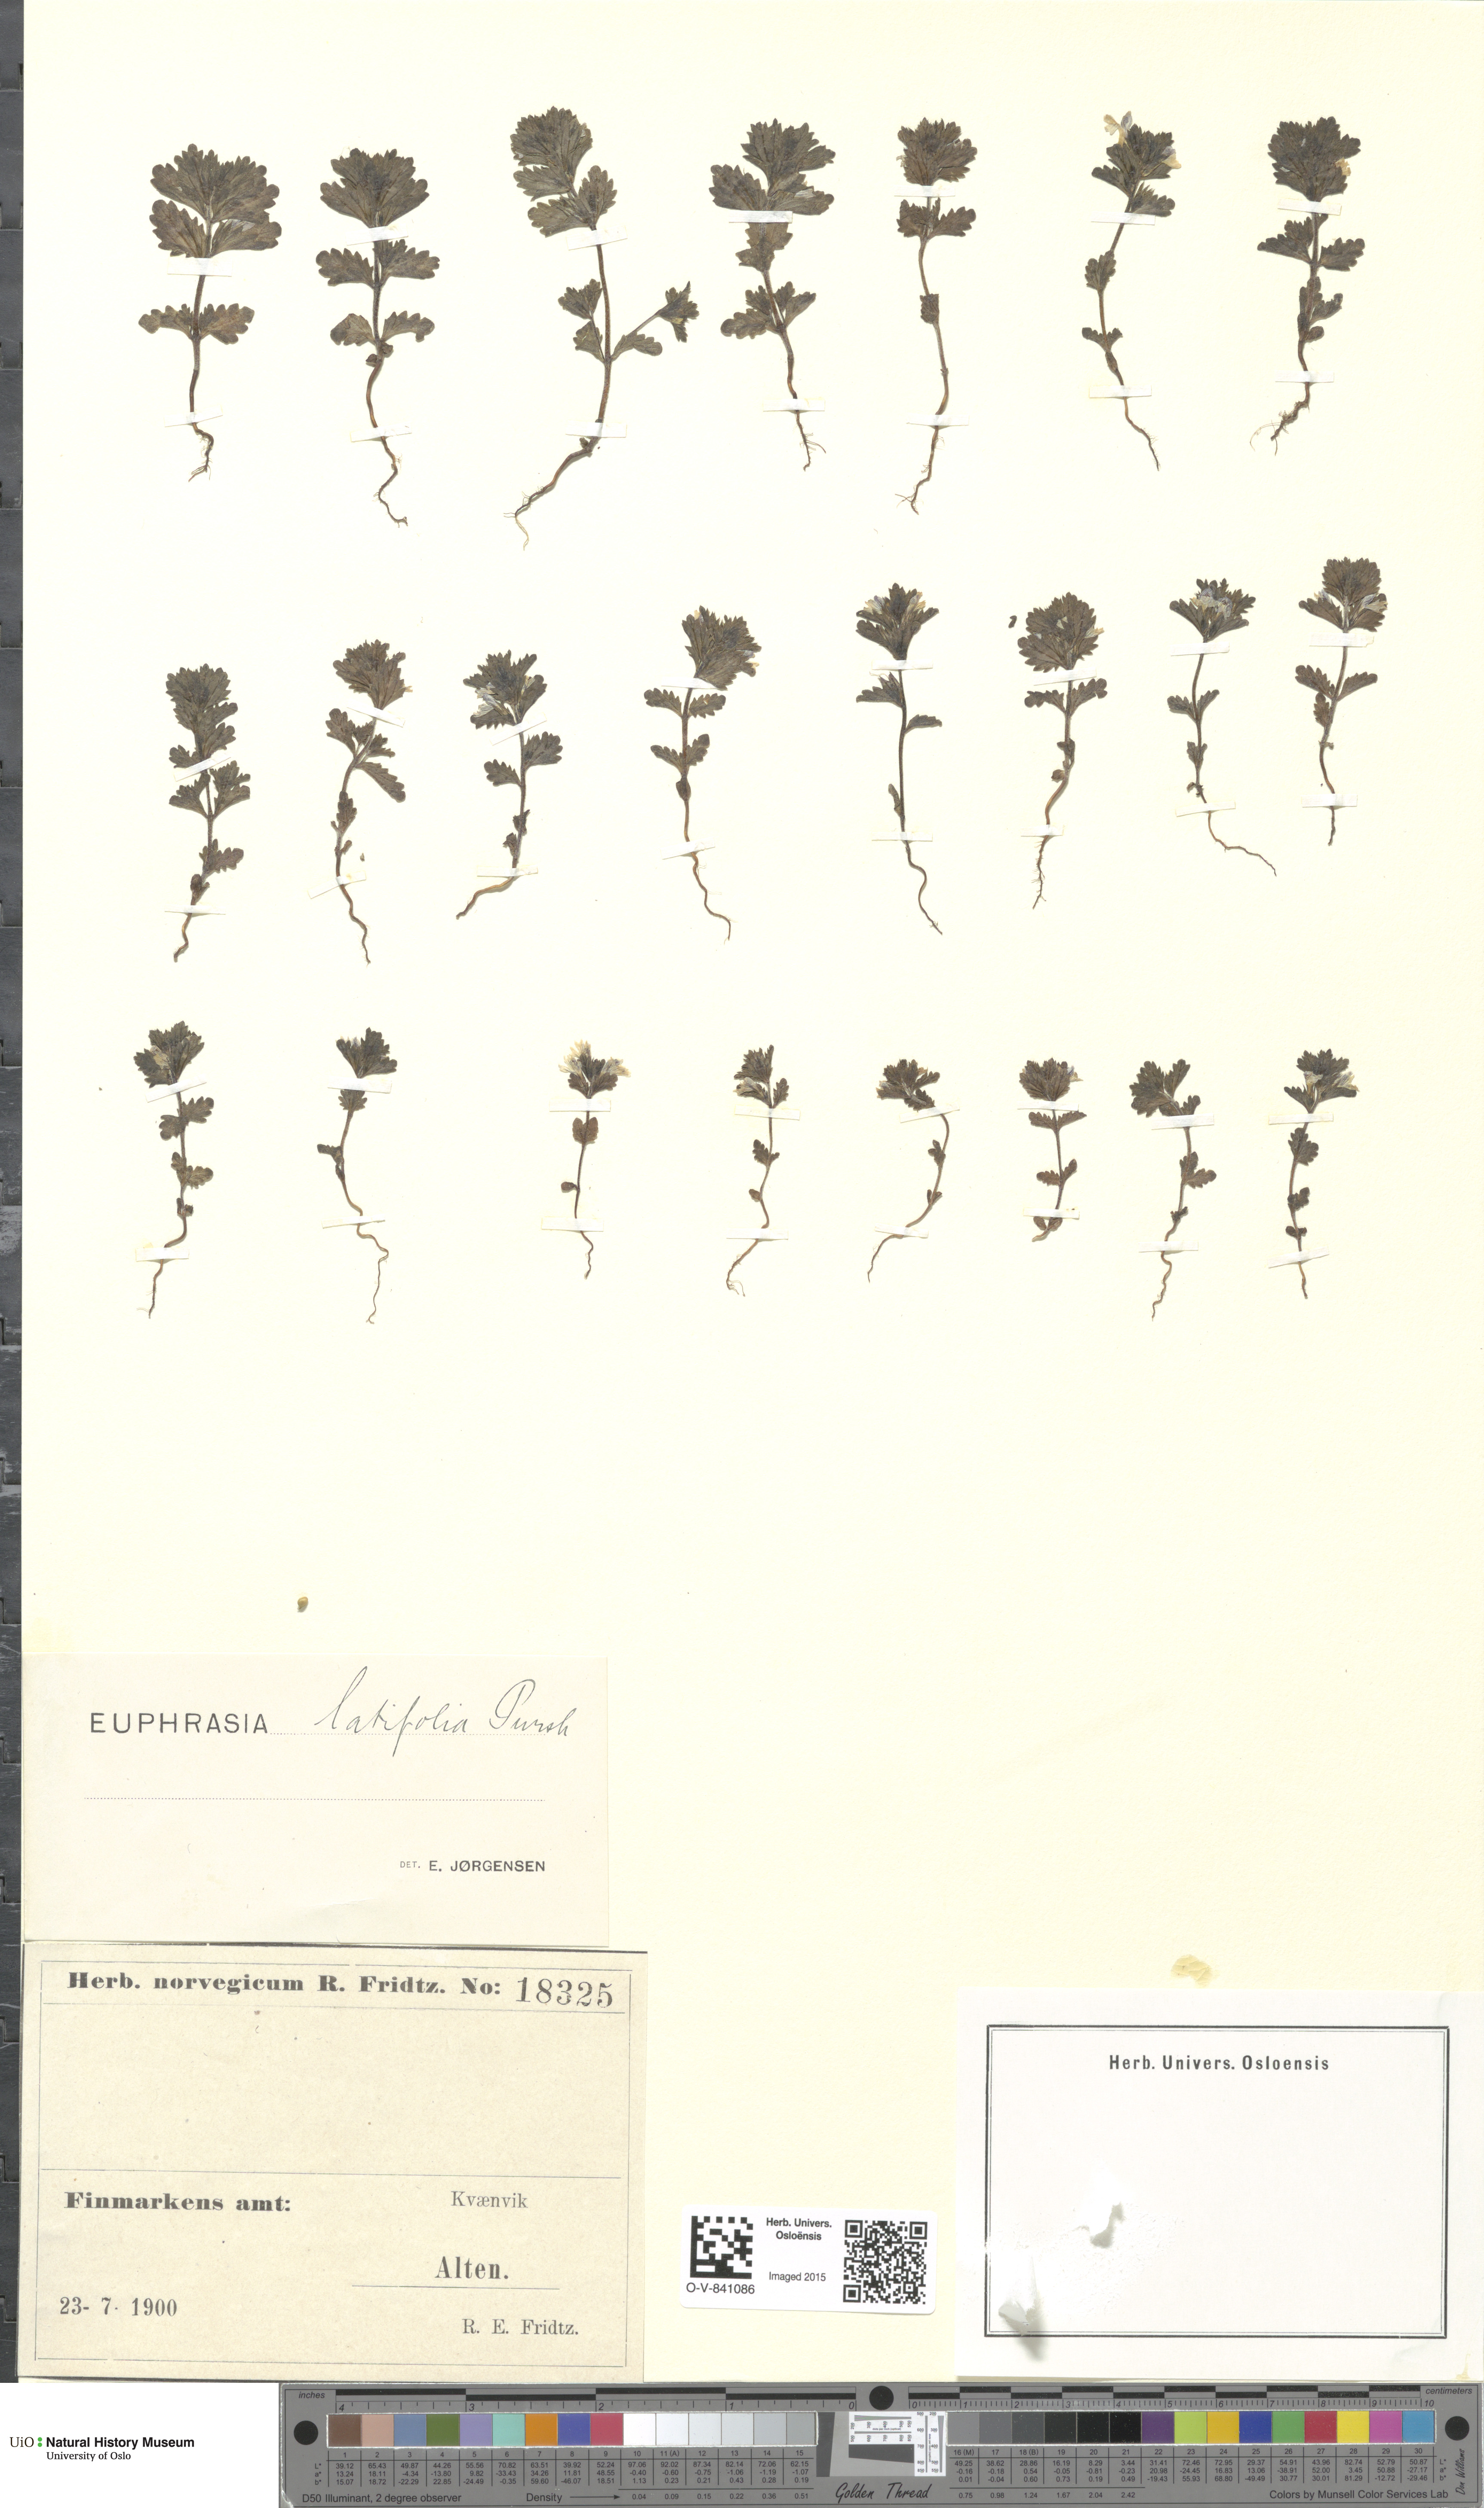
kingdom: Plantae
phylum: Tracheophyta
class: Magnoliopsida
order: Lamiales
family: Orobanchaceae
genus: Euphrasia
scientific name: Euphrasia wettsteinii
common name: Wettstein's eyebright
